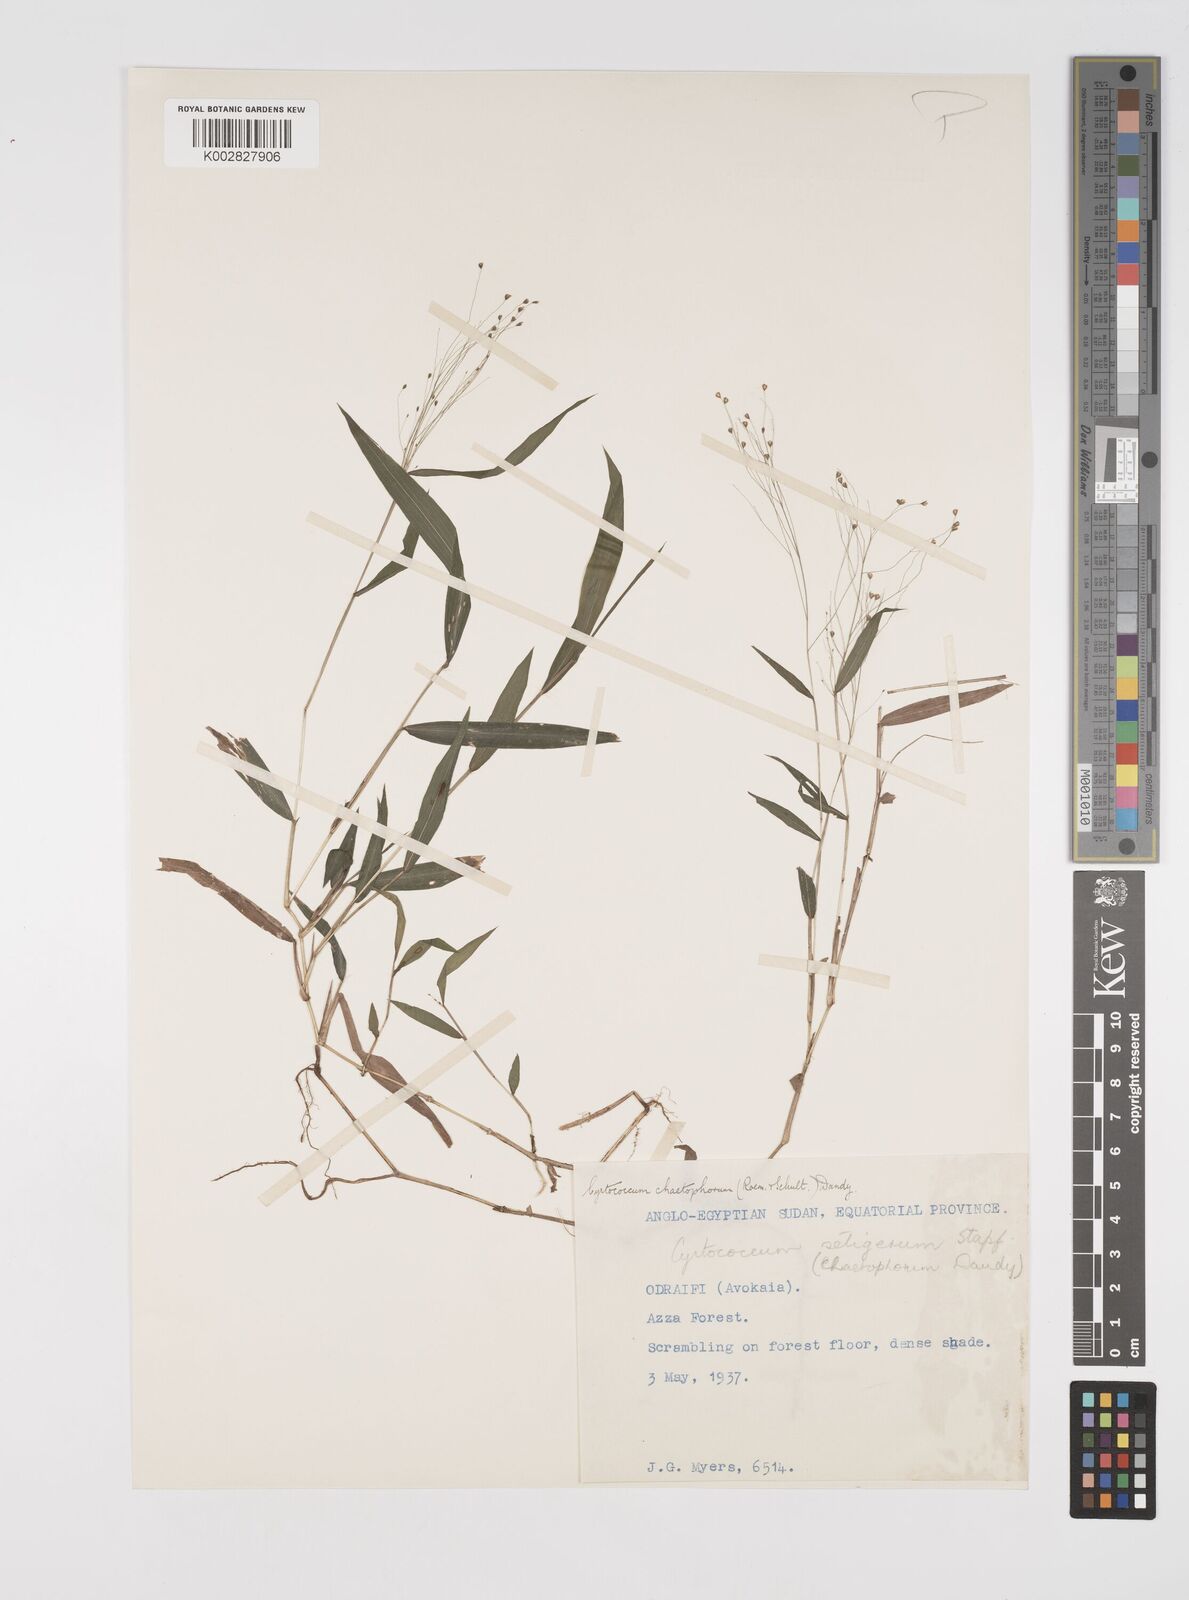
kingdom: Plantae
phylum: Tracheophyta
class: Liliopsida
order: Poales
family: Poaceae
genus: Cyrtococcum
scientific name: Cyrtococcum chaetophoron
